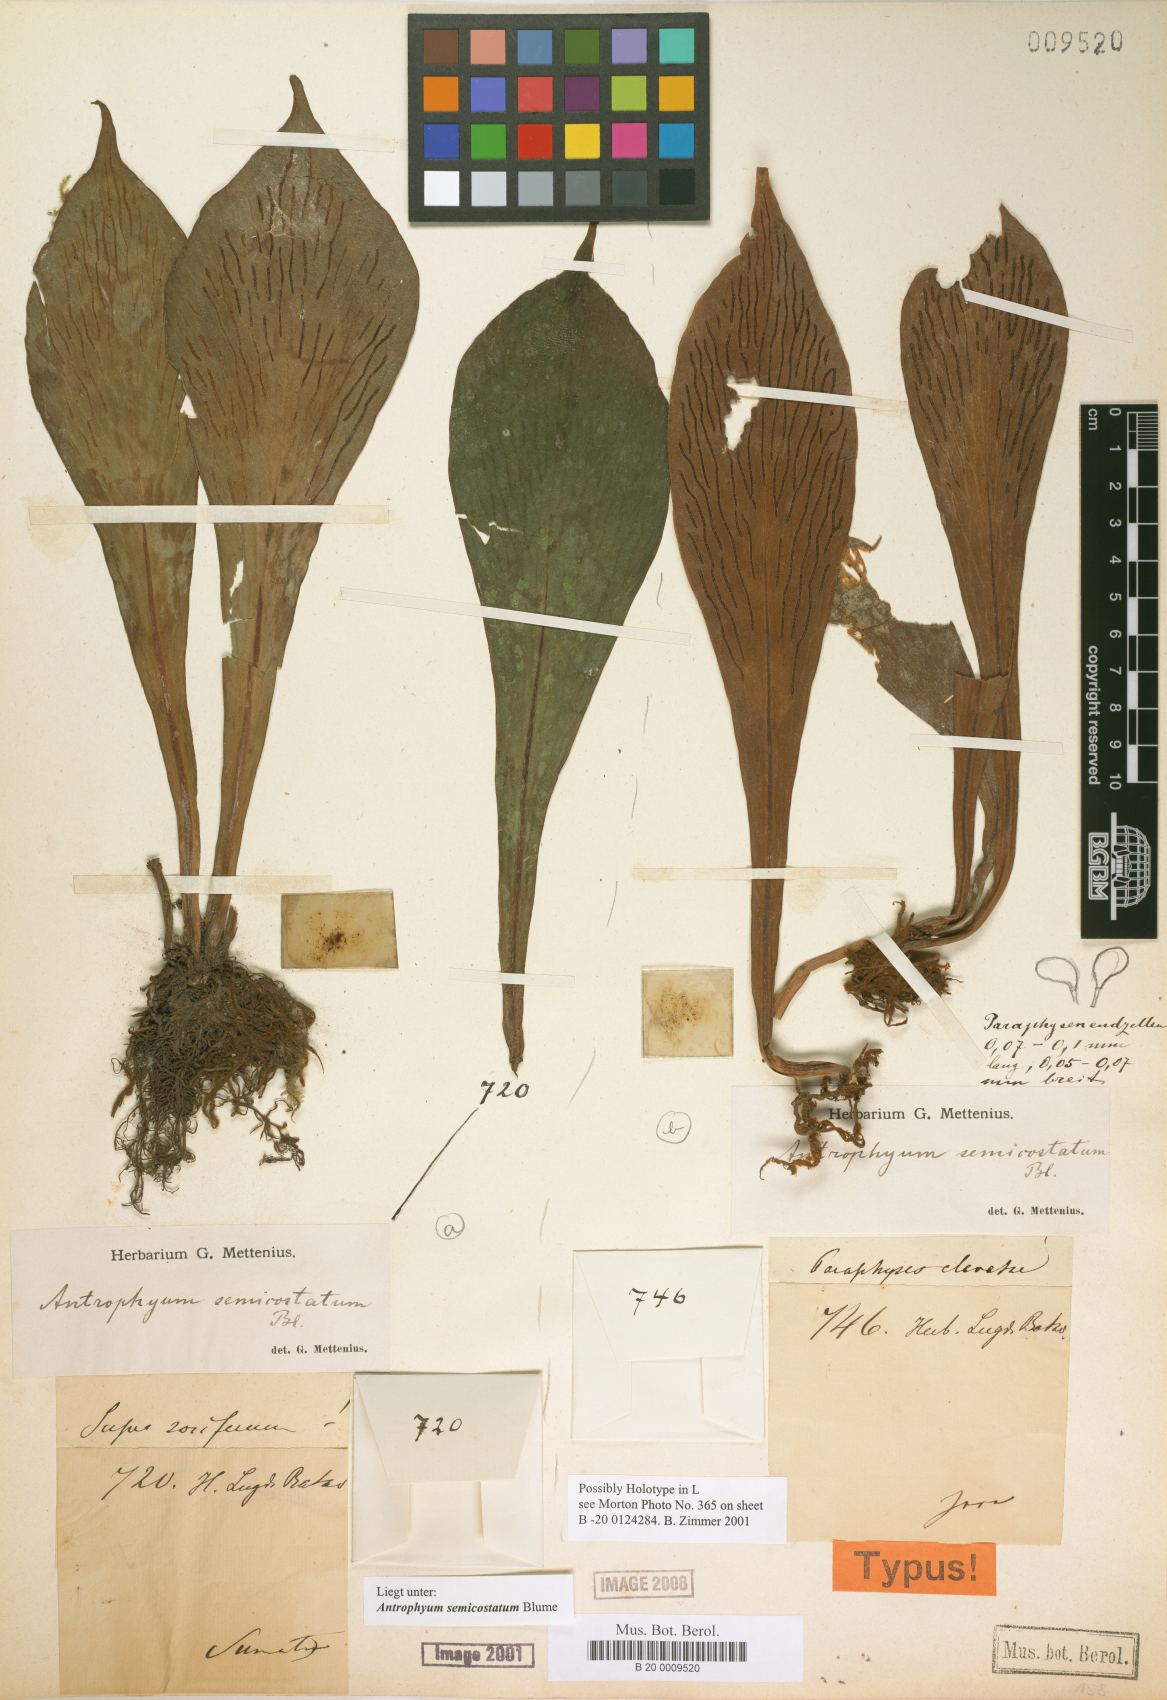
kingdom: Plantae
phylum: Tracheophyta
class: Polypodiopsida
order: Polypodiales
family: Pteridaceae
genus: Antrophyum
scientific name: Antrophyum semicostatum
